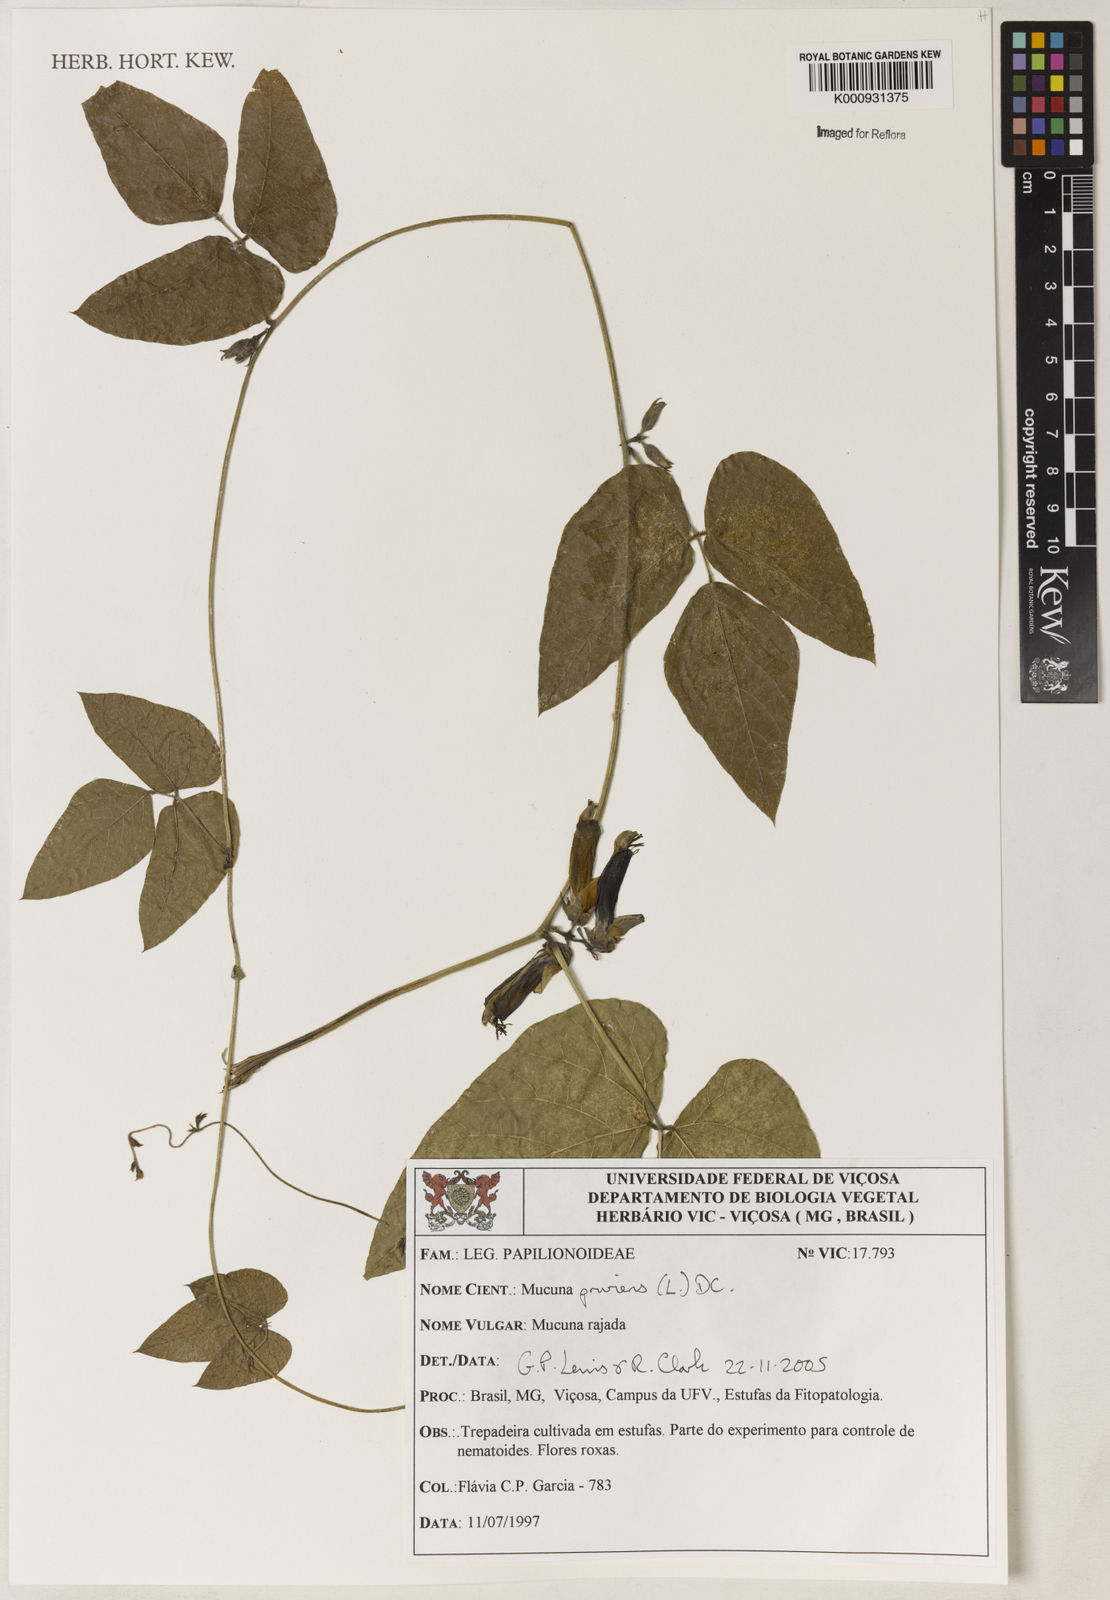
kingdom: Plantae
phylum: Tracheophyta
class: Magnoliopsida
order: Fabales
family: Fabaceae
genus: Mucuna
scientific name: Mucuna pruriens
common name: Cow-itch
